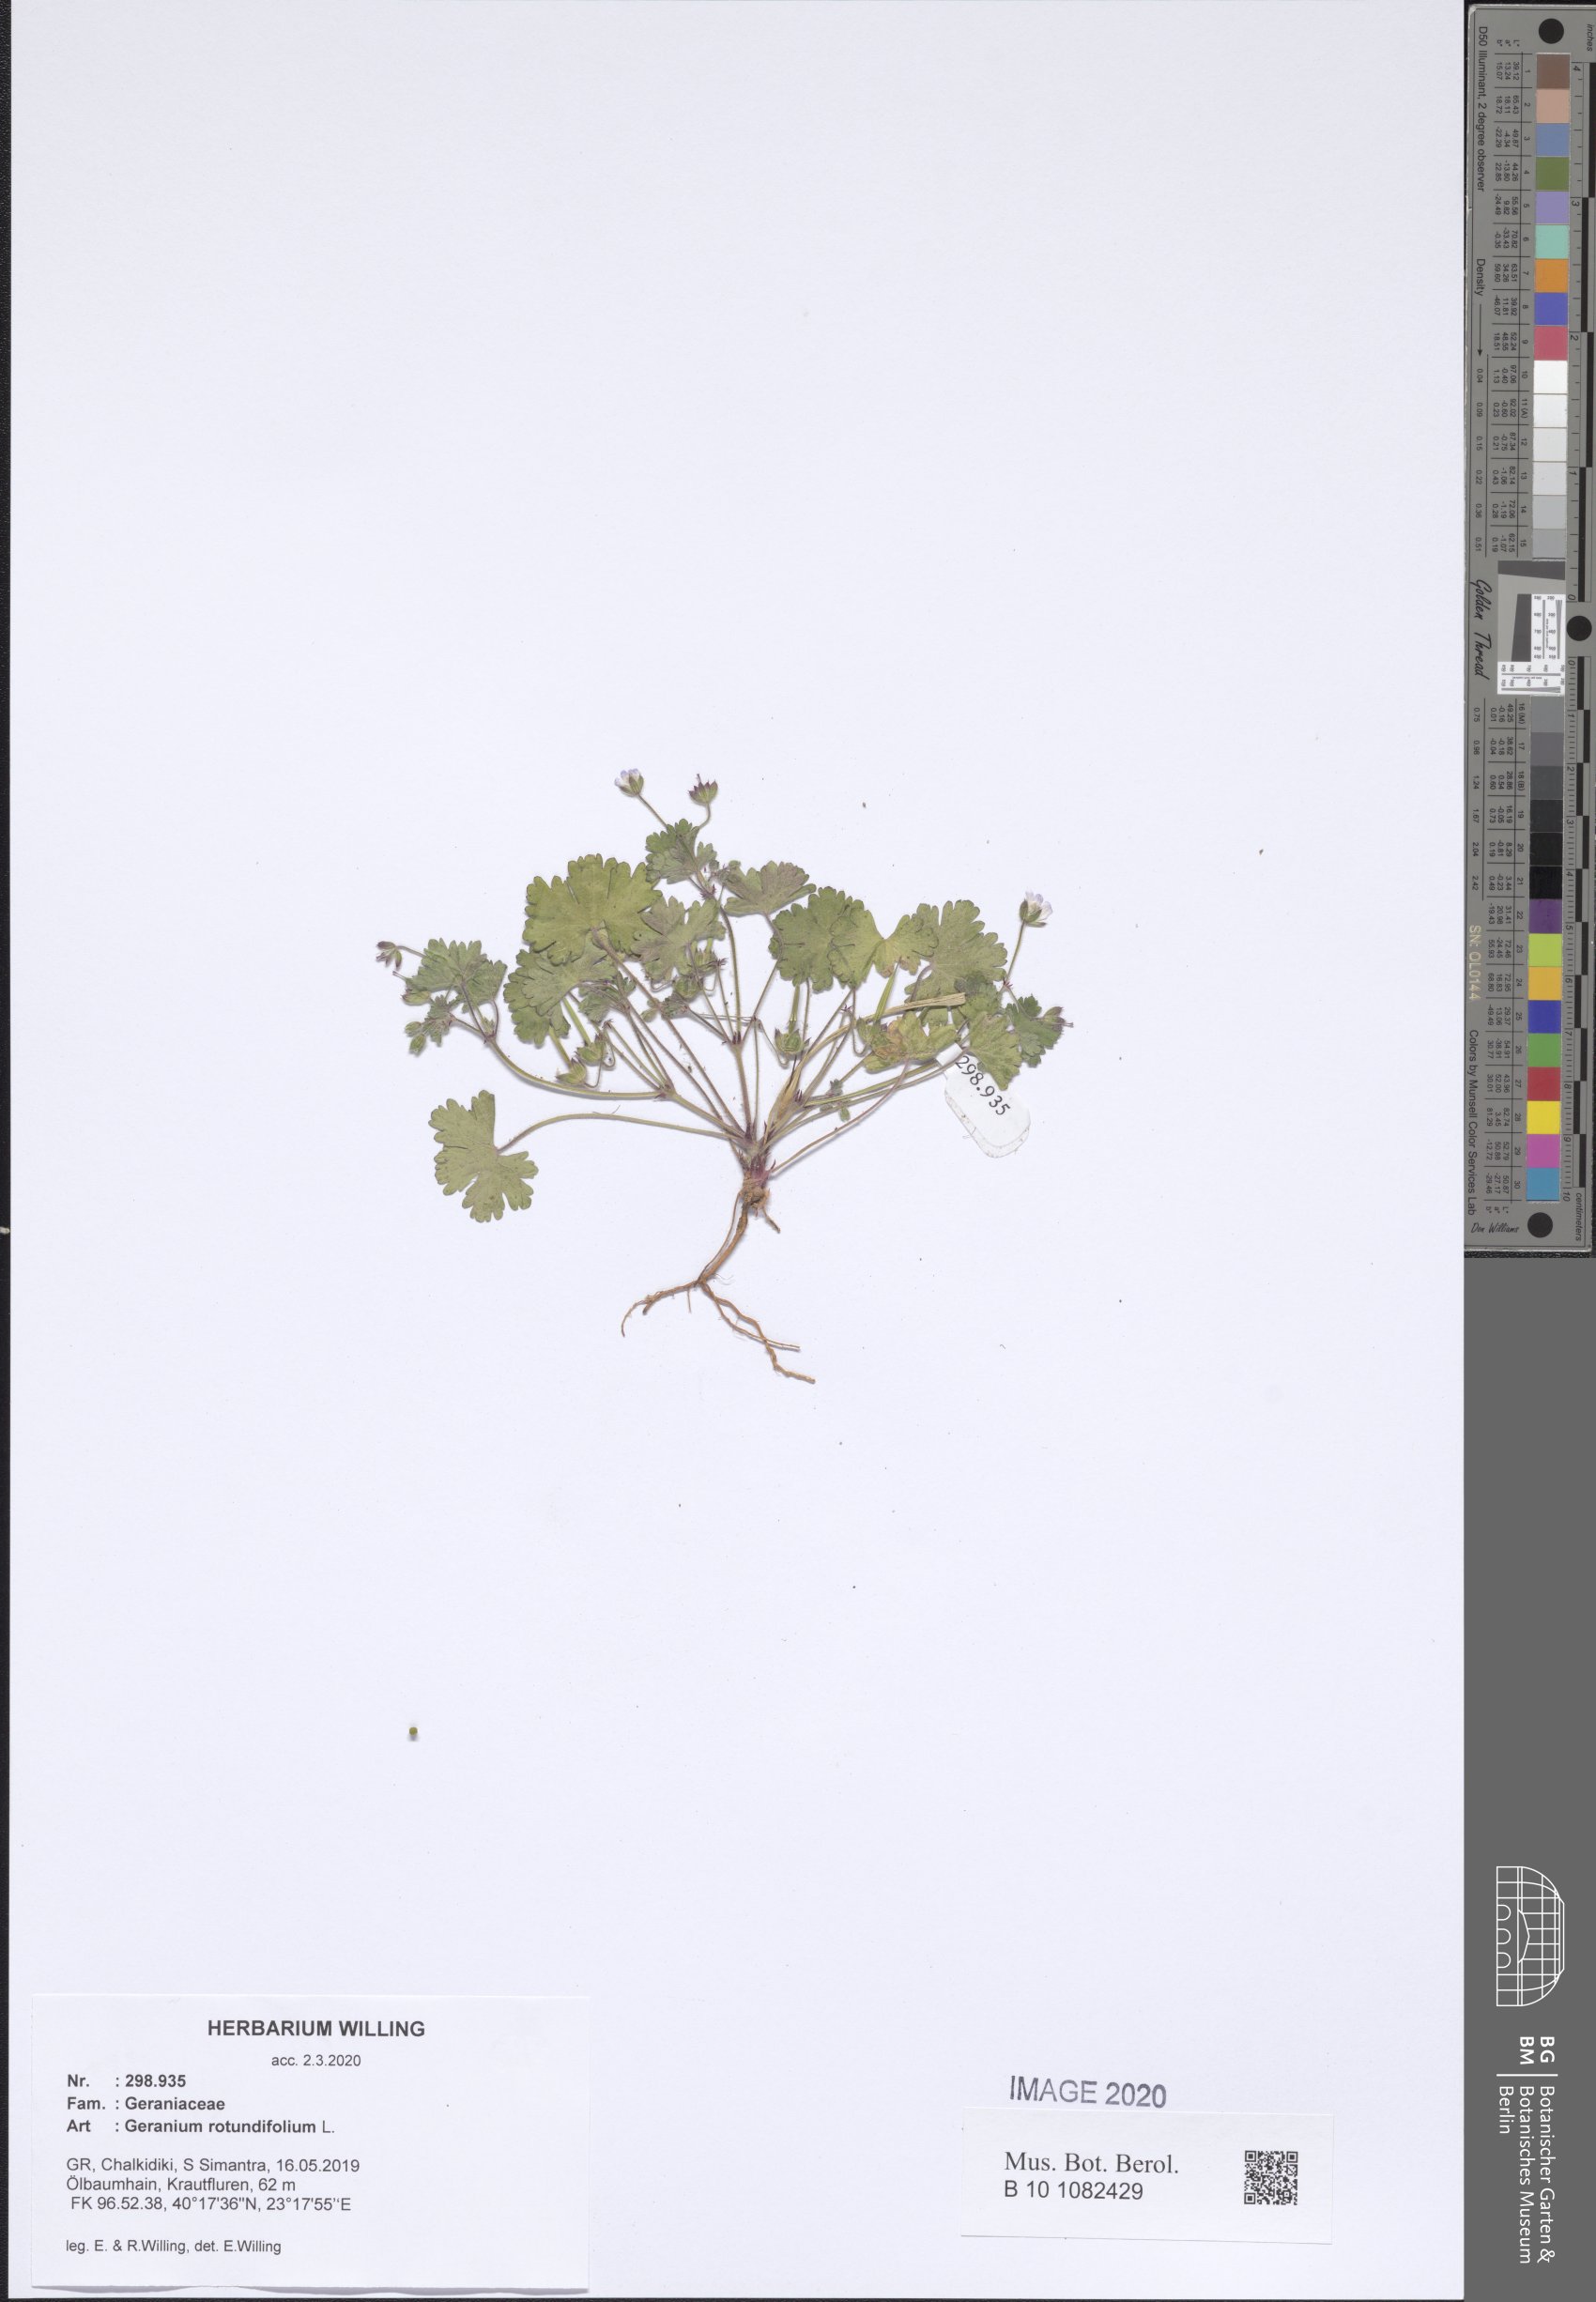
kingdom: Plantae
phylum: Tracheophyta
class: Magnoliopsida
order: Geraniales
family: Geraniaceae
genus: Geranium
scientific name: Geranium rotundifolium
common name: Round-leaved crane's-bill
